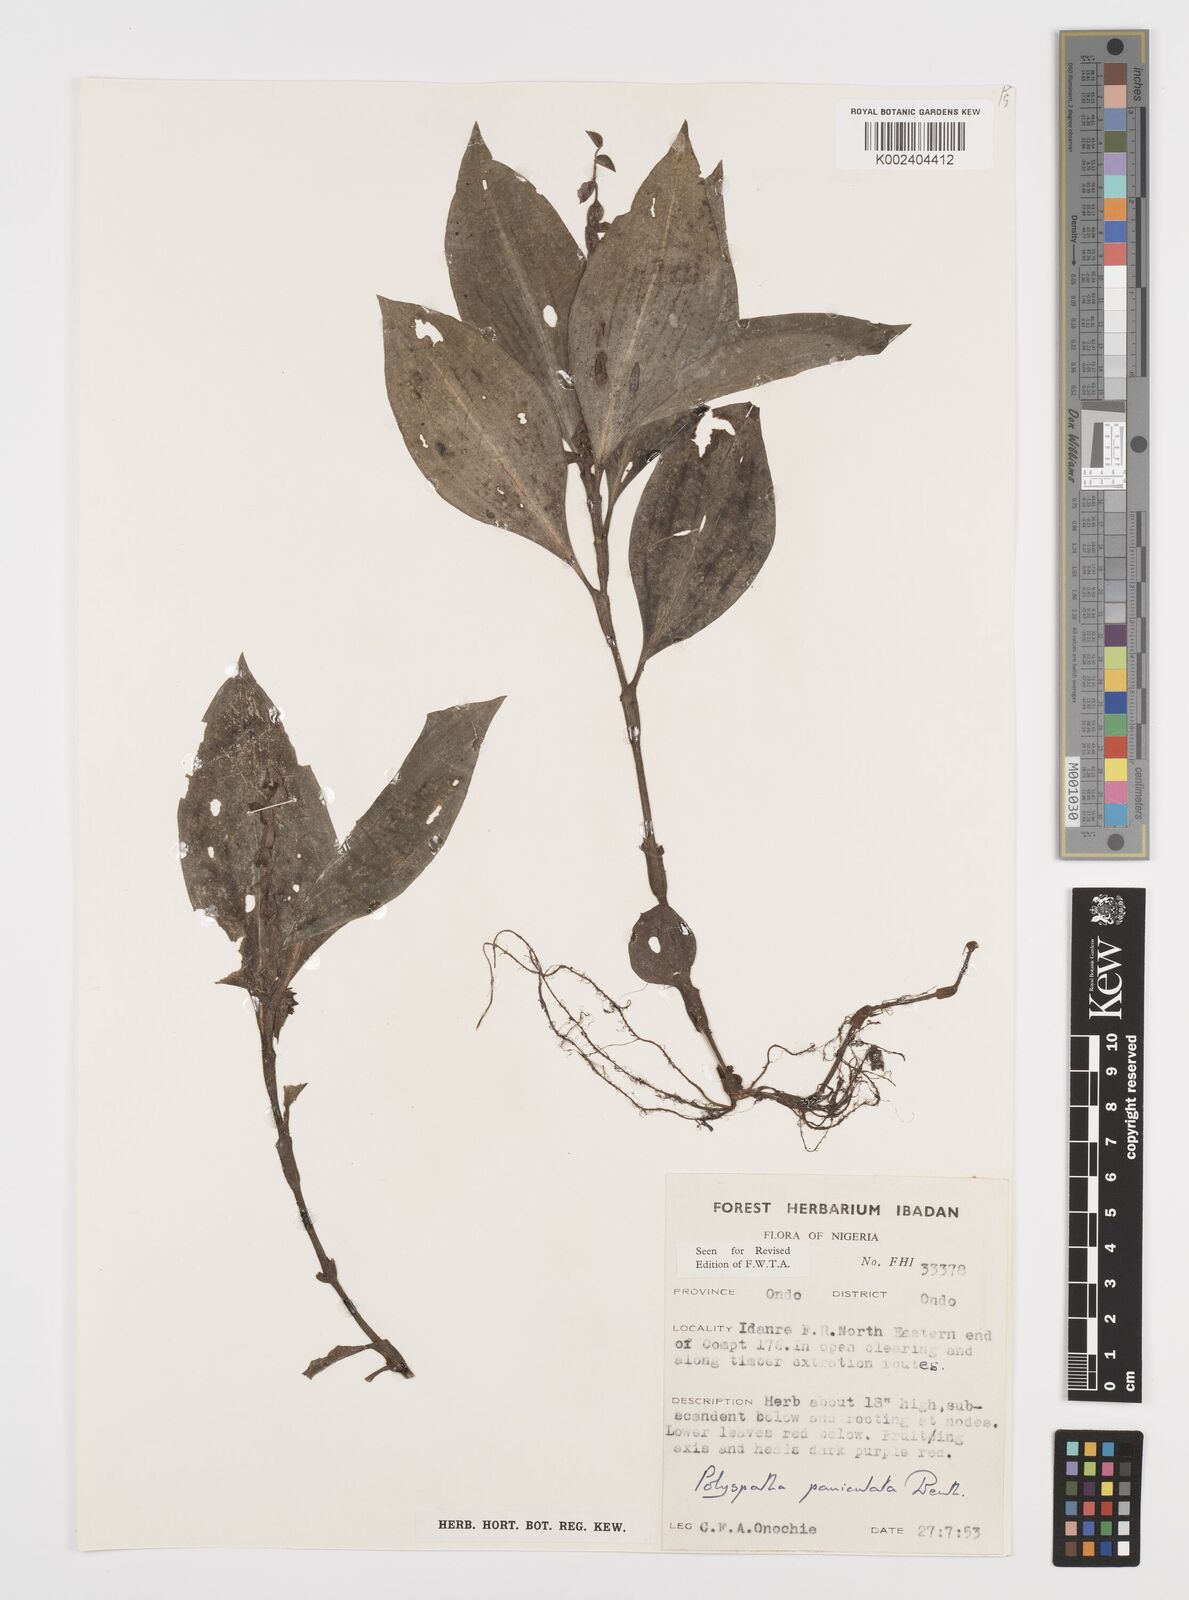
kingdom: Plantae
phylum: Tracheophyta
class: Liliopsida
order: Commelinales
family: Commelinaceae
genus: Polyspatha
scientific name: Polyspatha paniculata
